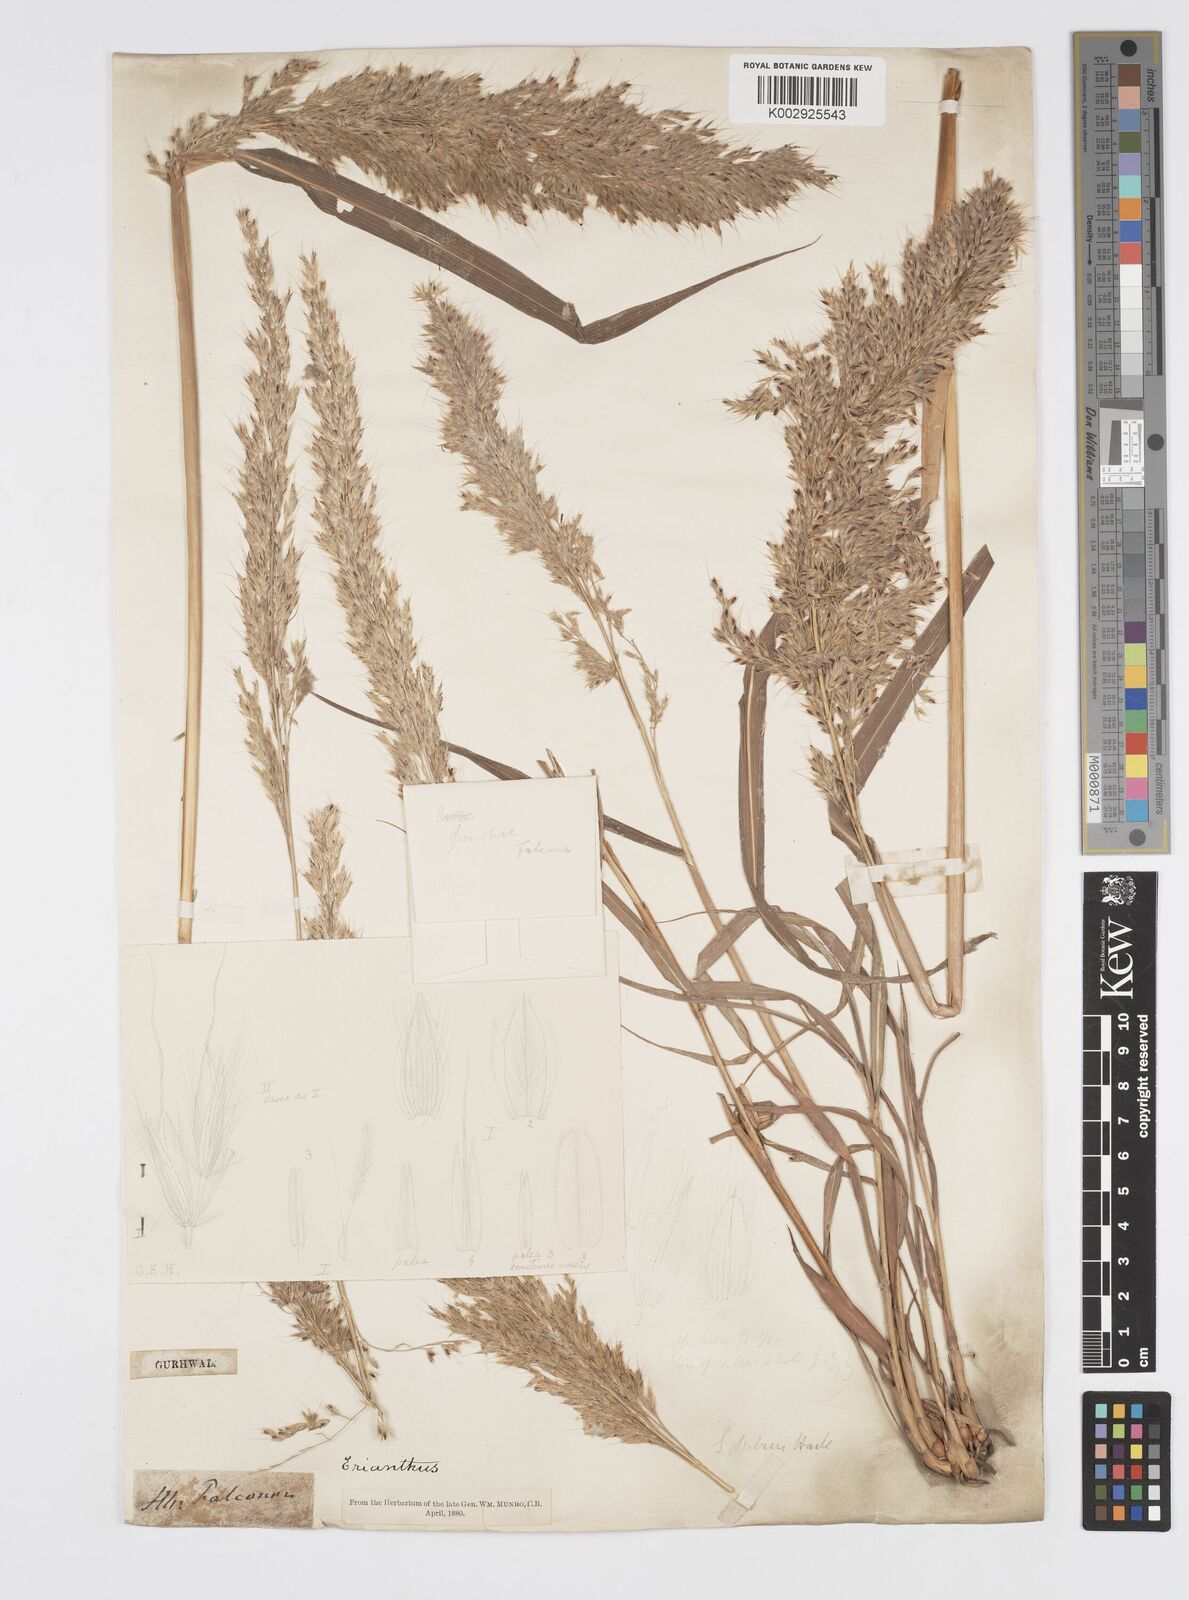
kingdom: Plantae
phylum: Tracheophyta
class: Liliopsida
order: Poales
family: Poaceae
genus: Spodiopogon
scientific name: Spodiopogon cotulifer
